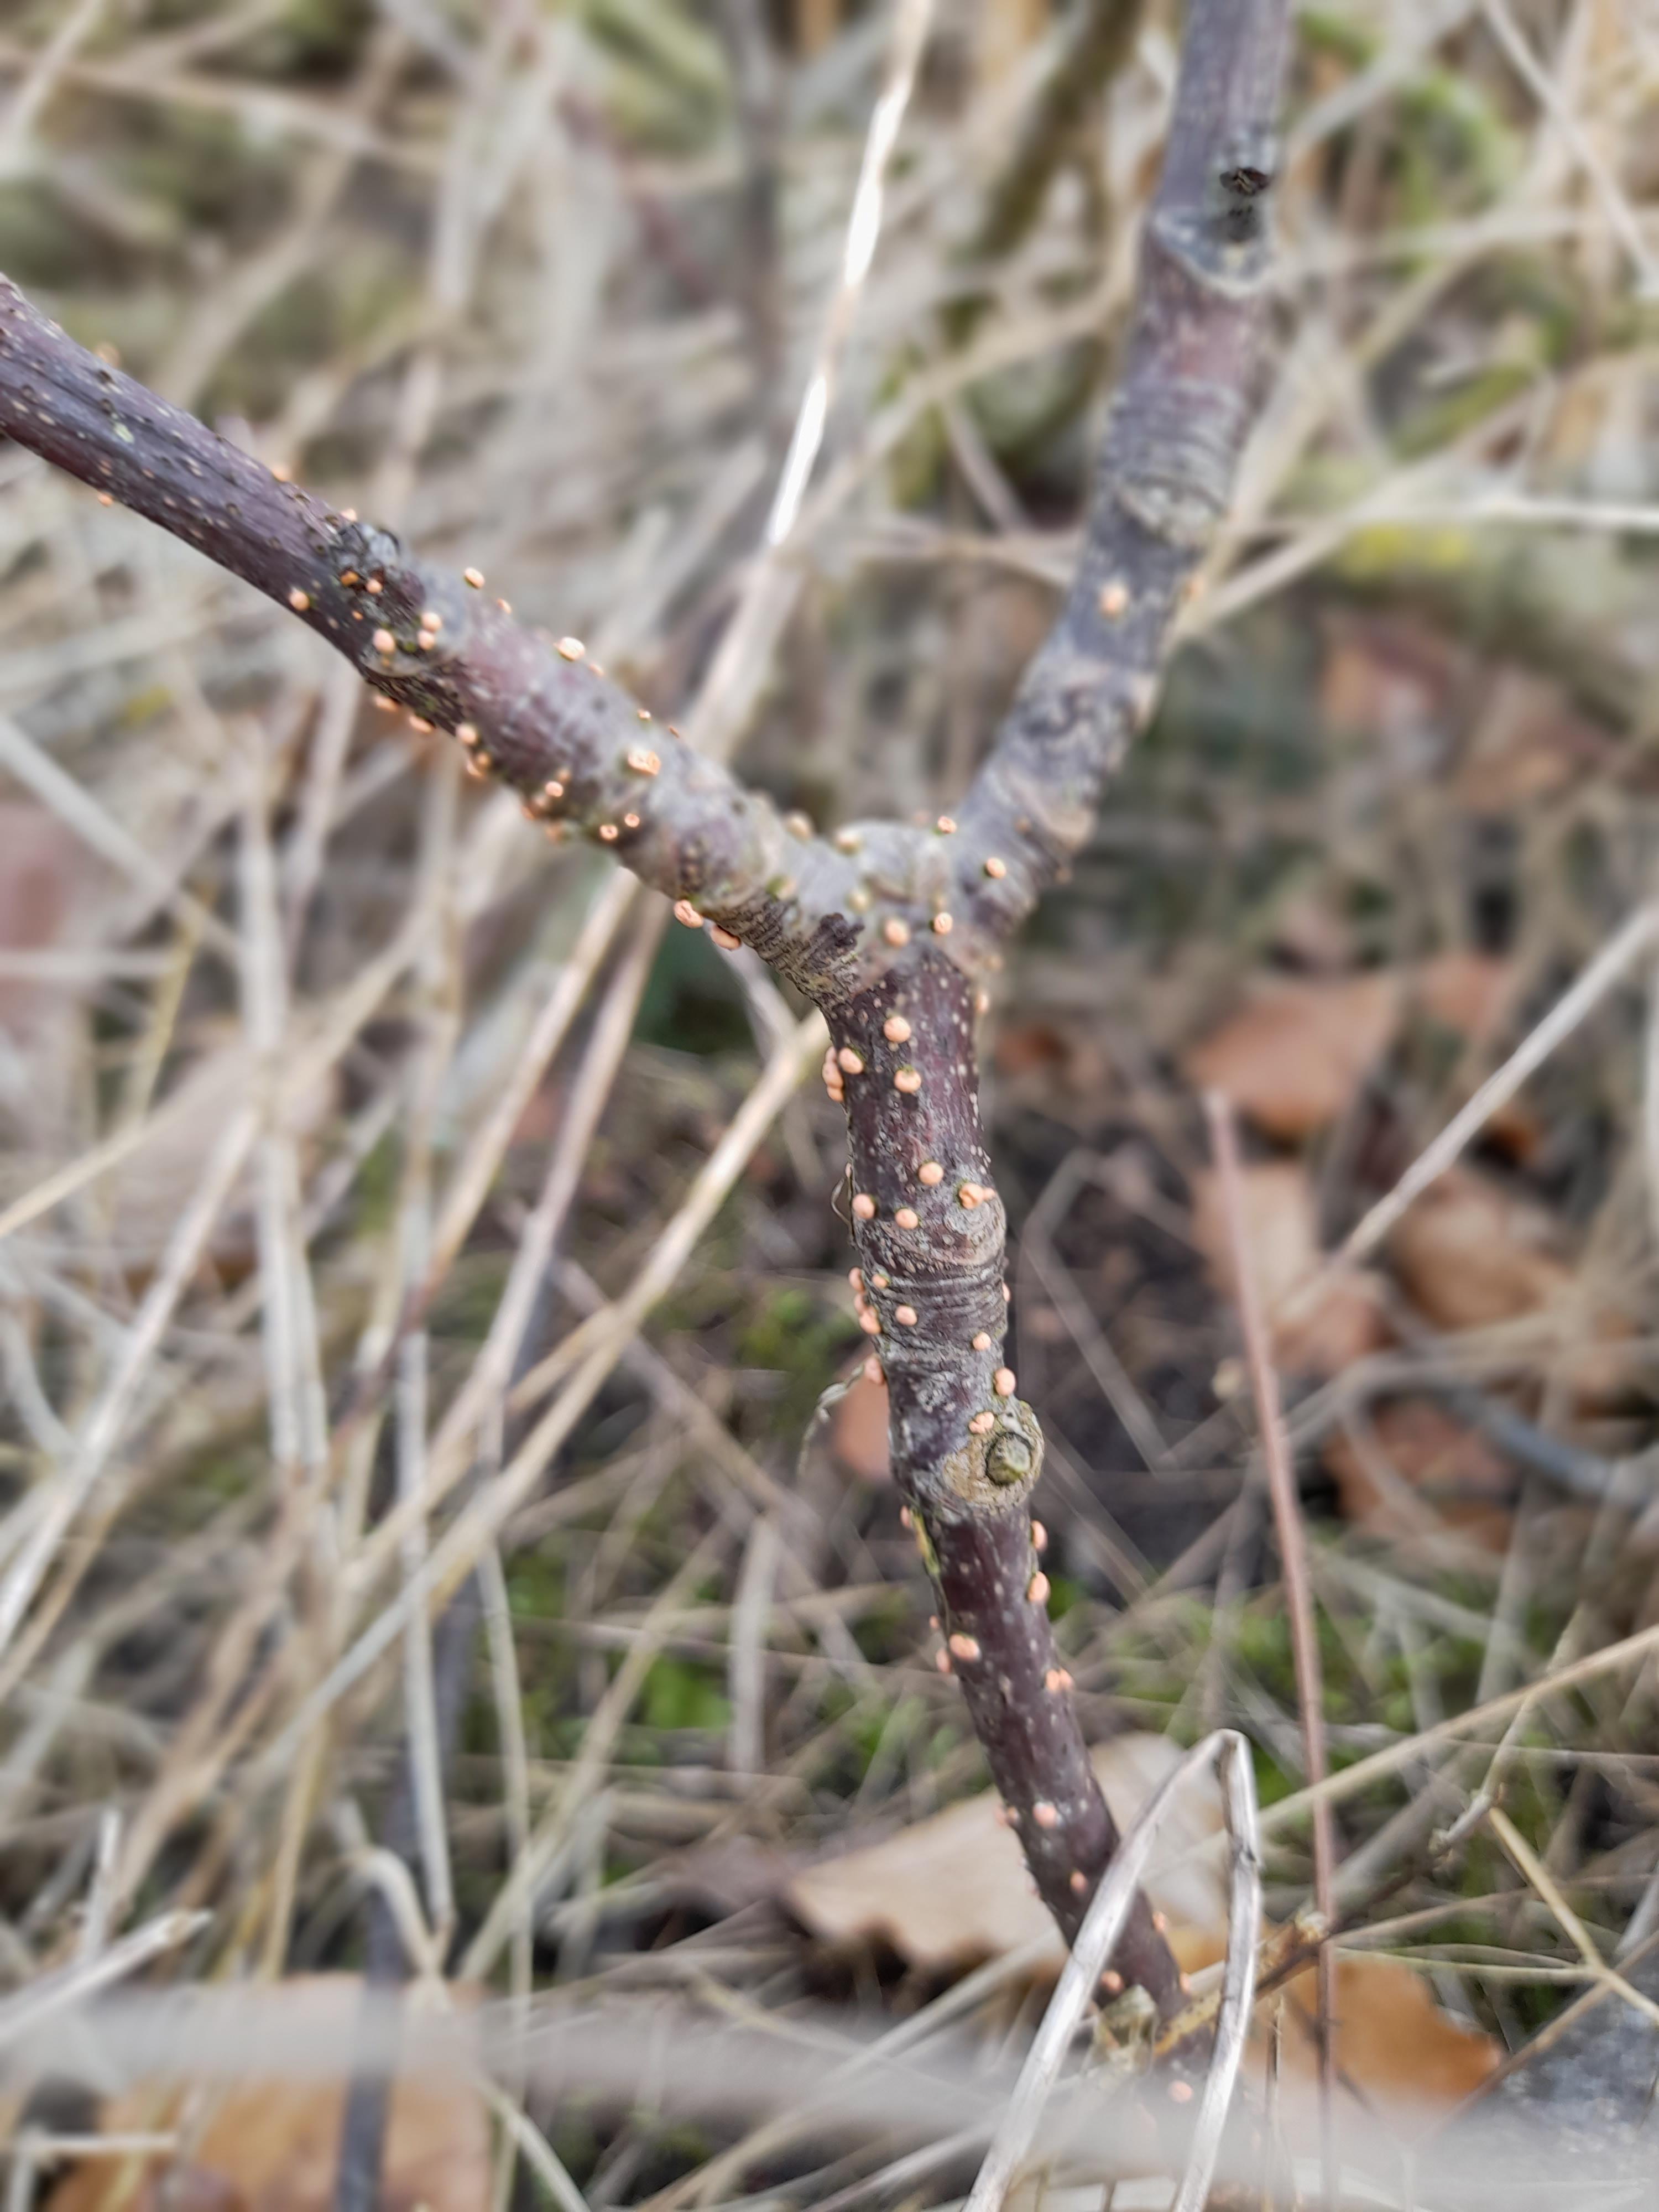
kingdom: Fungi
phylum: Ascomycota
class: Sordariomycetes
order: Hypocreales
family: Nectriaceae
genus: Nectria
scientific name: Nectria cinnabarina
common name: almindelig cinnobersvamp
